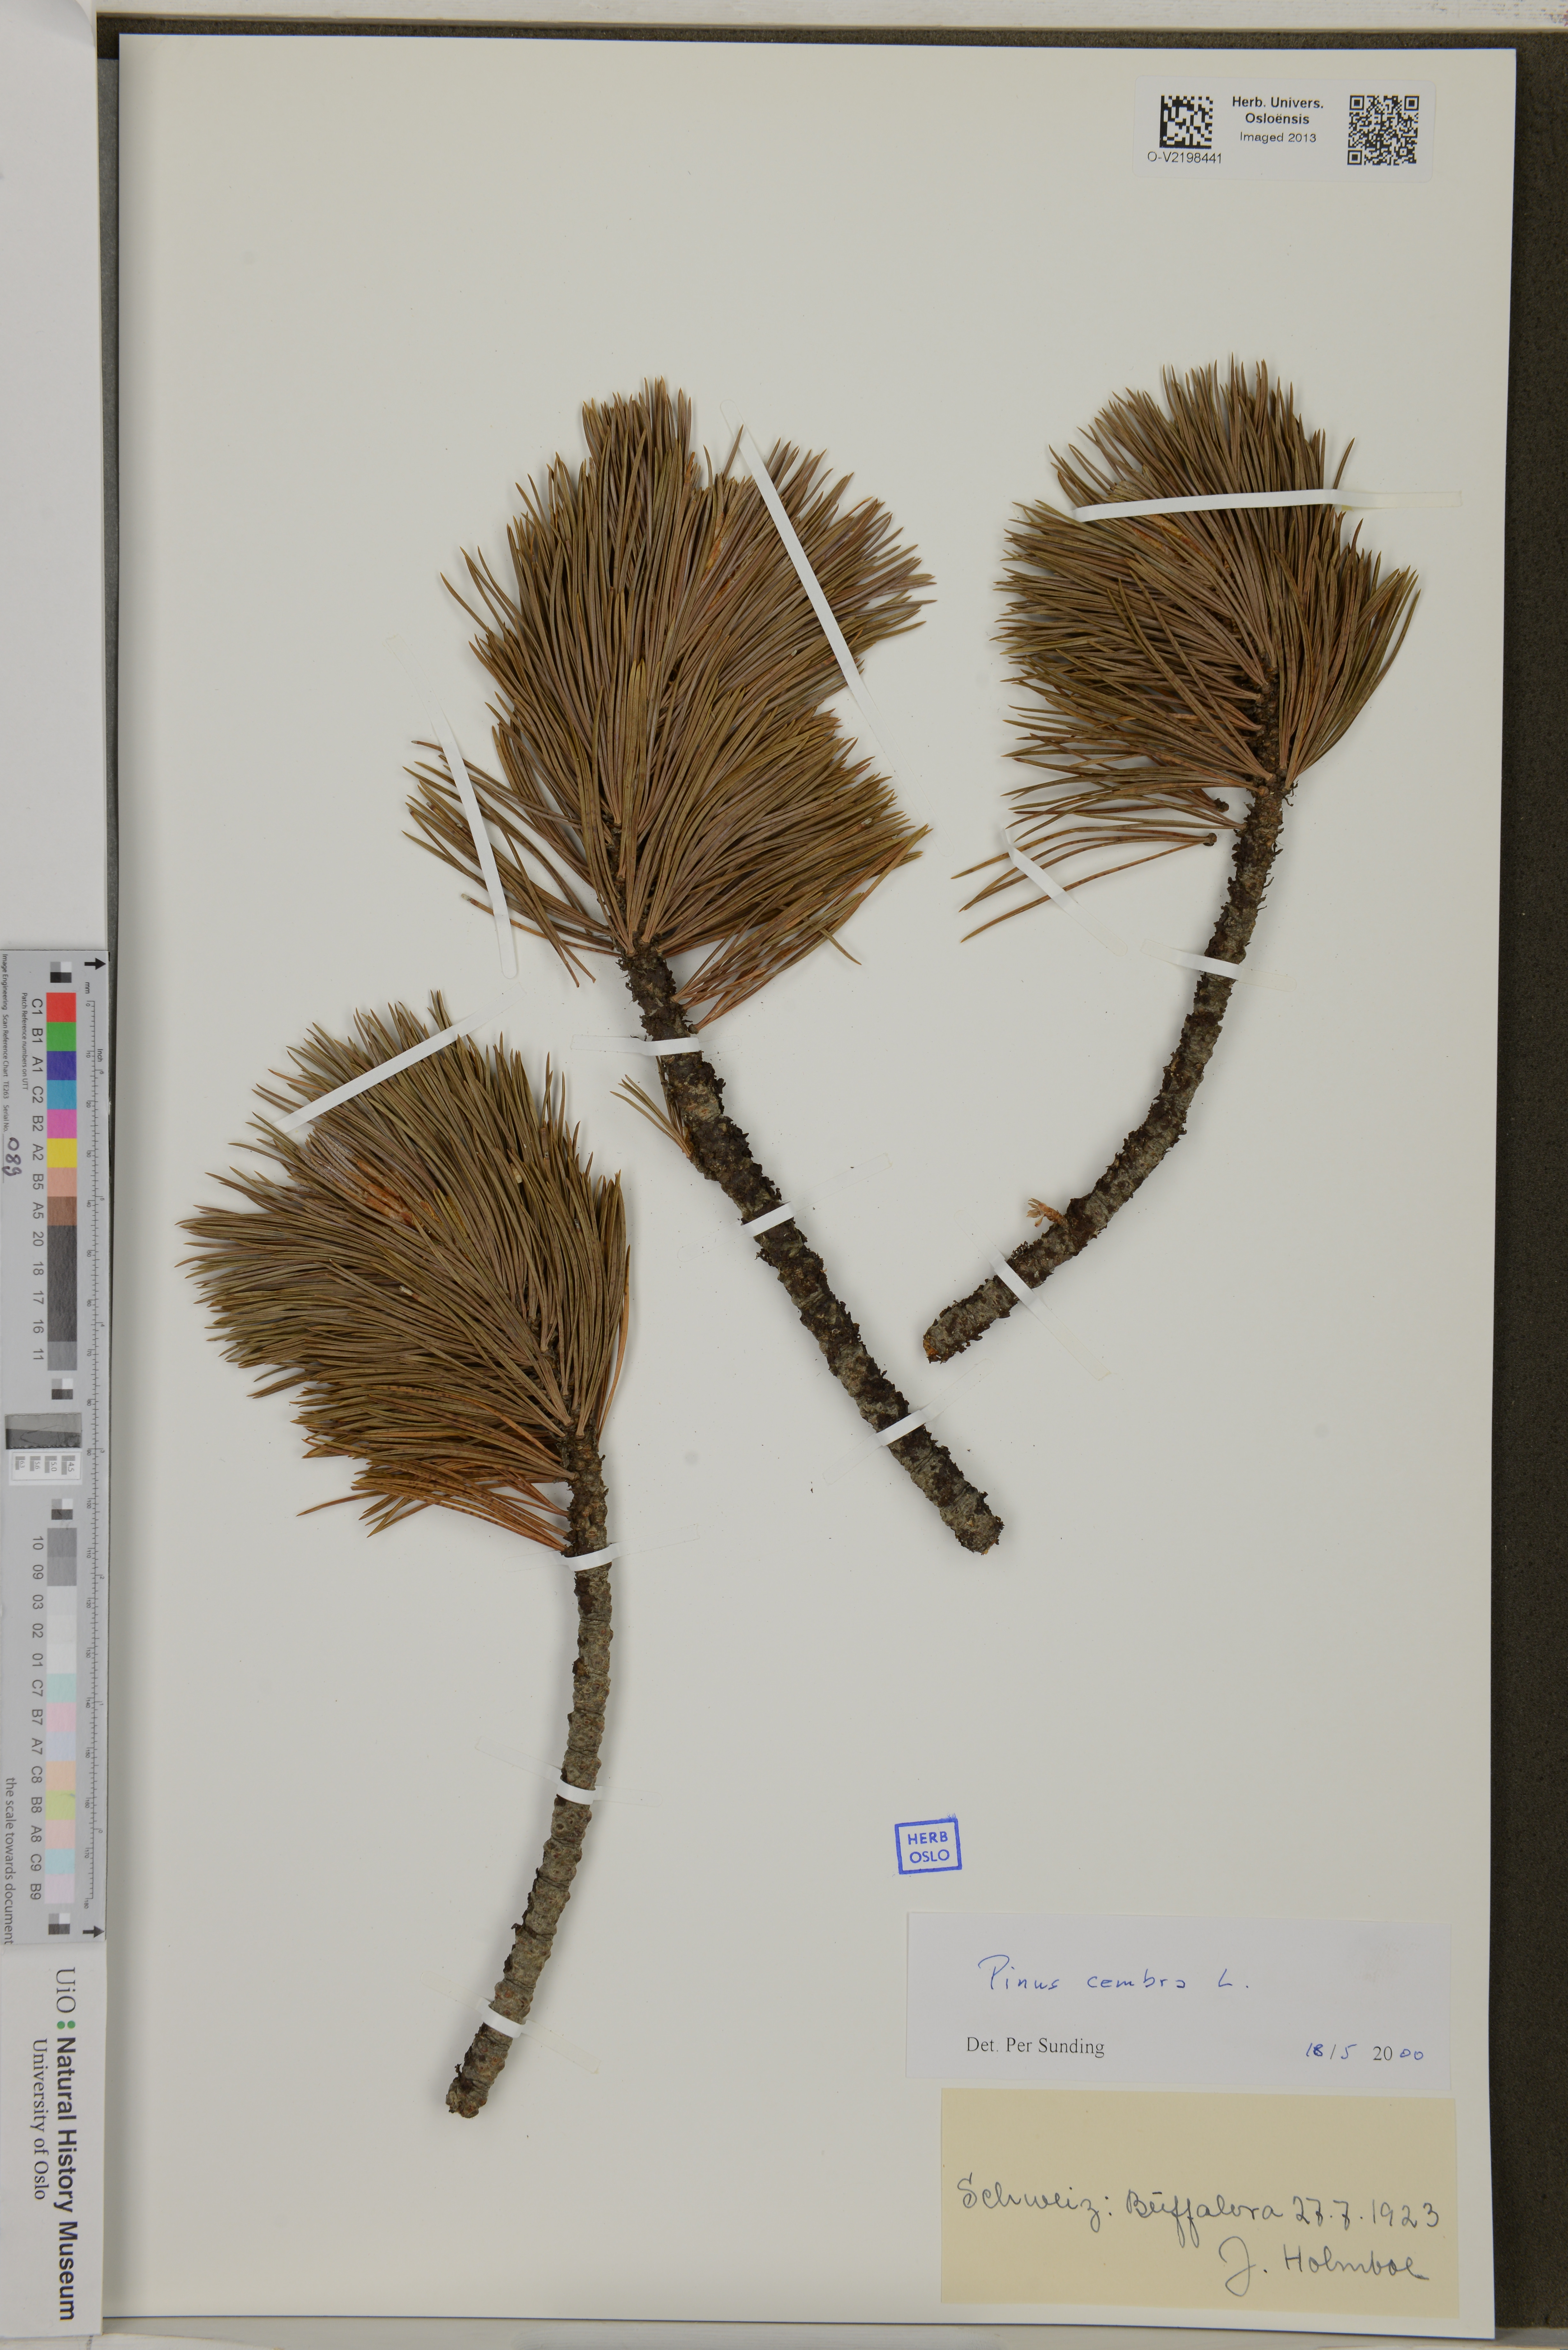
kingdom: Plantae
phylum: Tracheophyta
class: Pinopsida
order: Pinales
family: Pinaceae
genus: Pinus
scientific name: Pinus cembra
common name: Arolla pine
